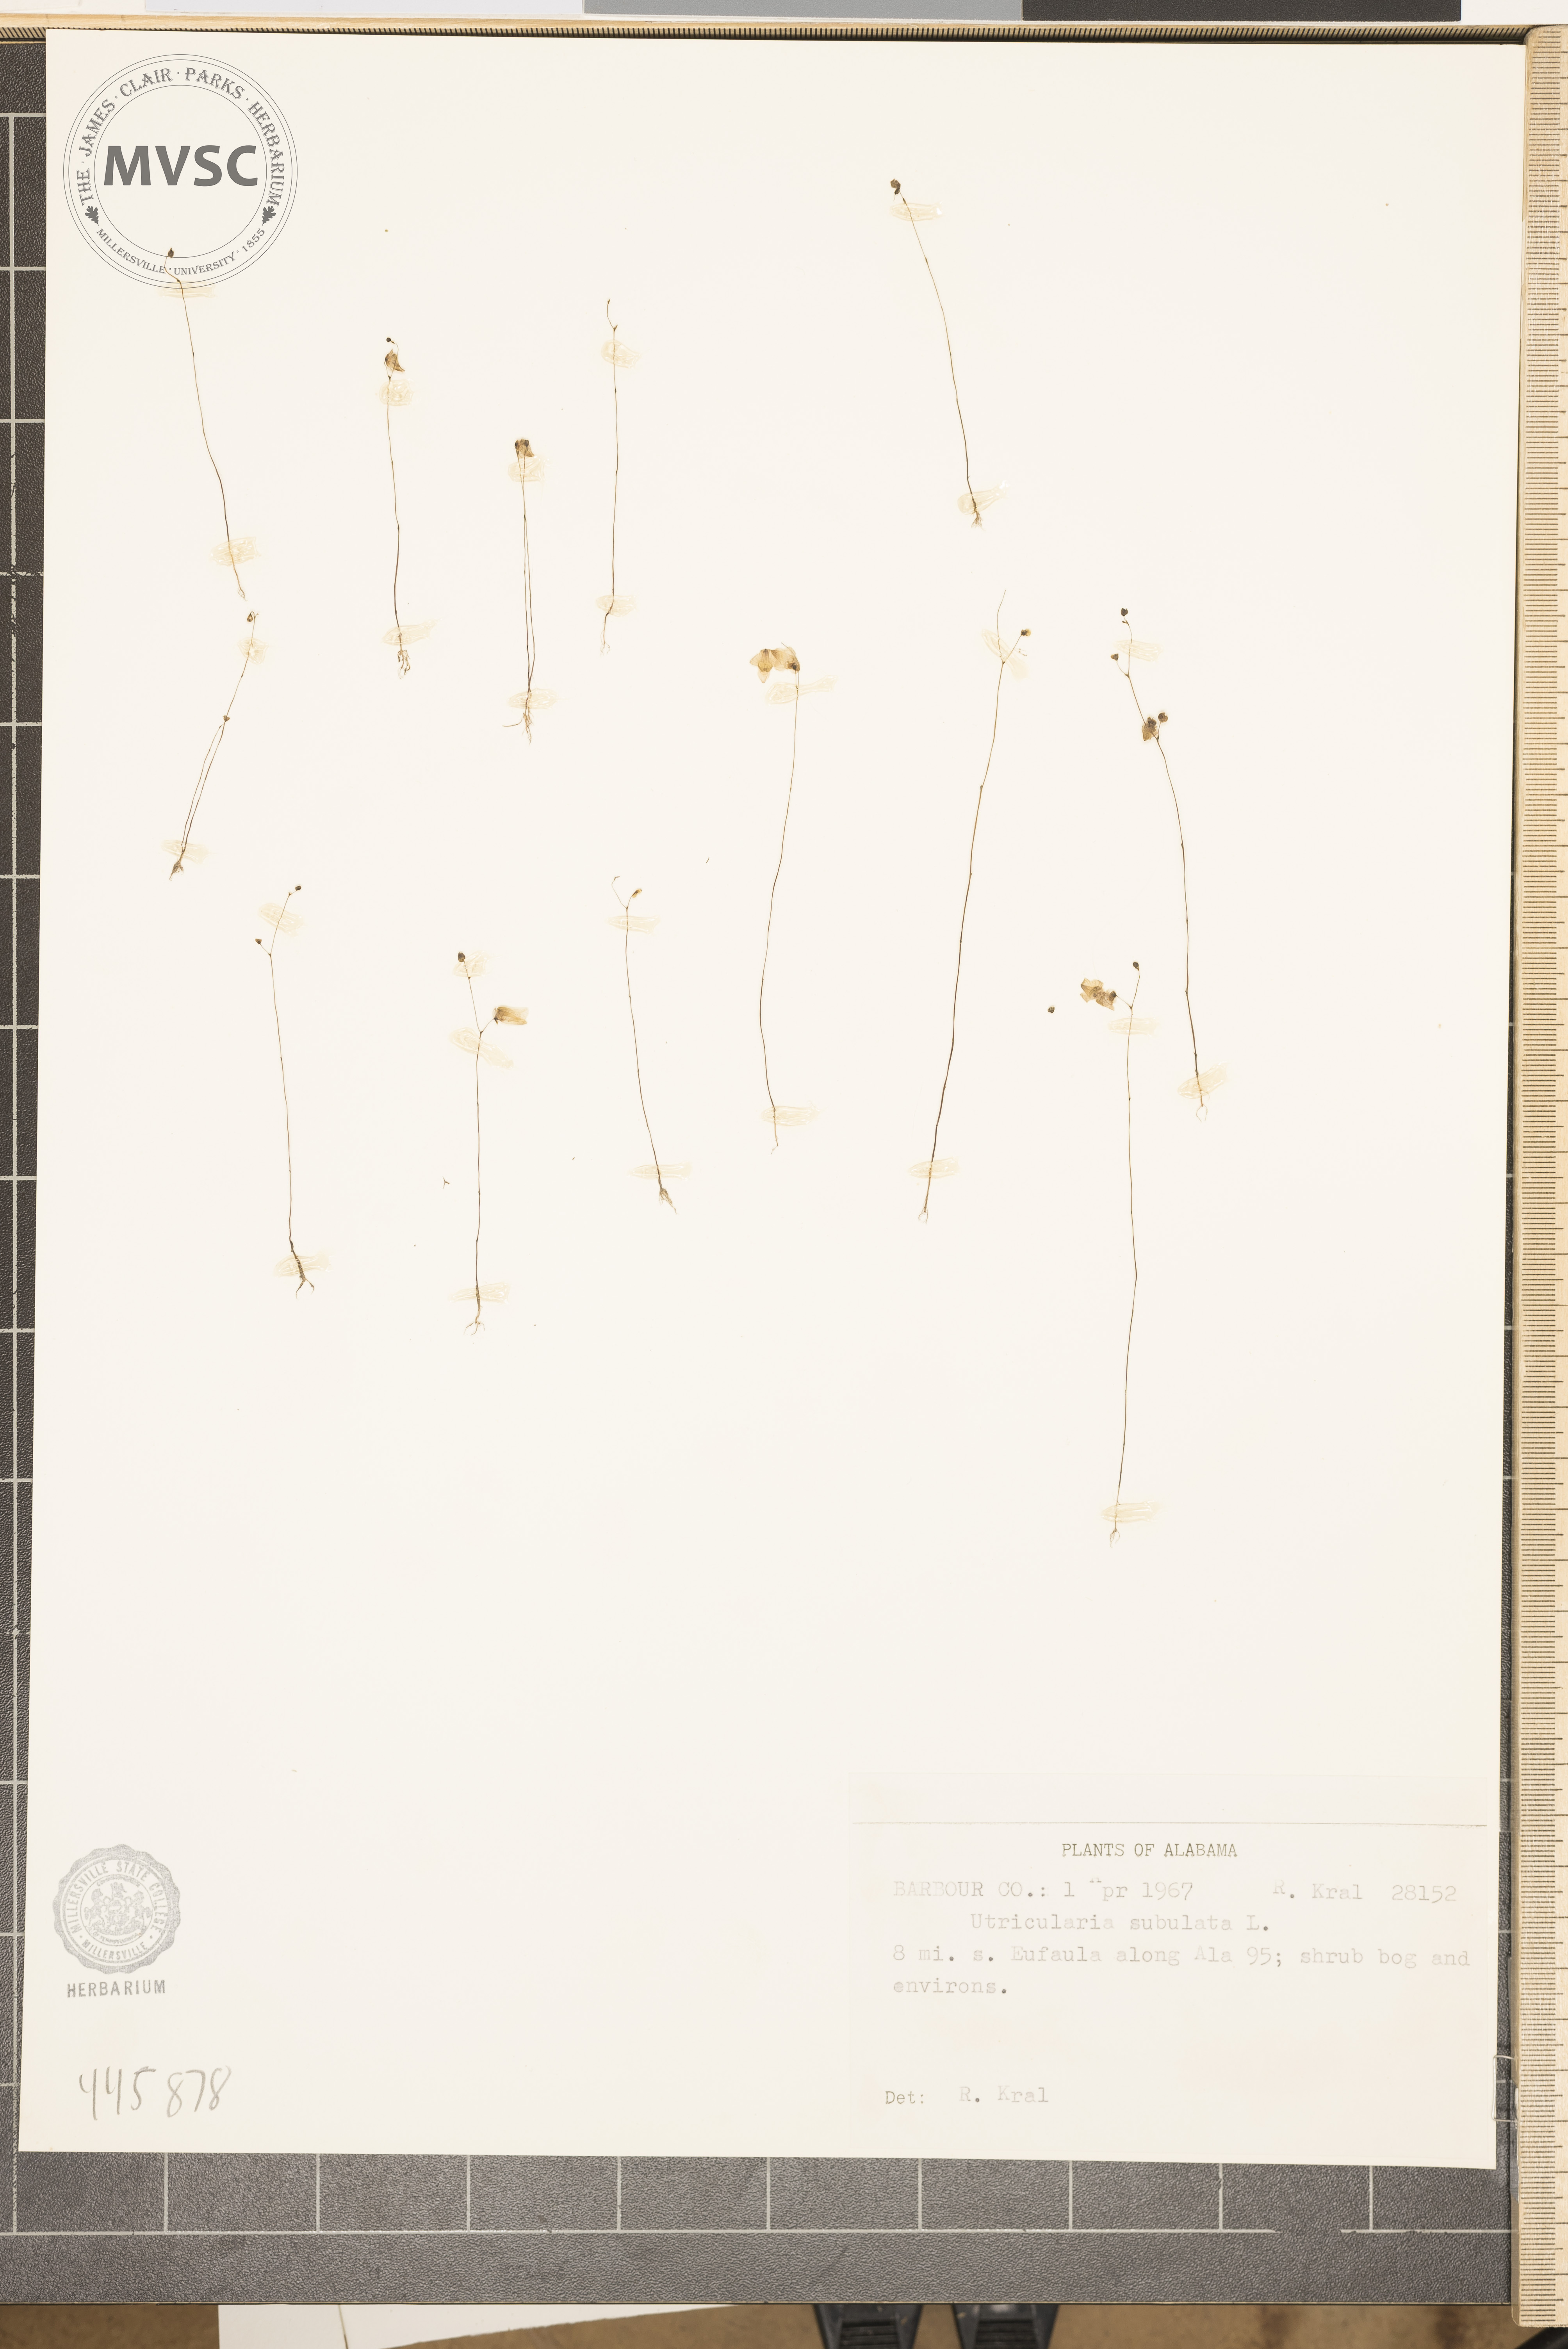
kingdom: Plantae
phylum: Tracheophyta
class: Magnoliopsida
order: Lamiales
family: Lentibulariaceae
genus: Utricularia
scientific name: Utricularia subulata
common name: Tiny bladderwort
